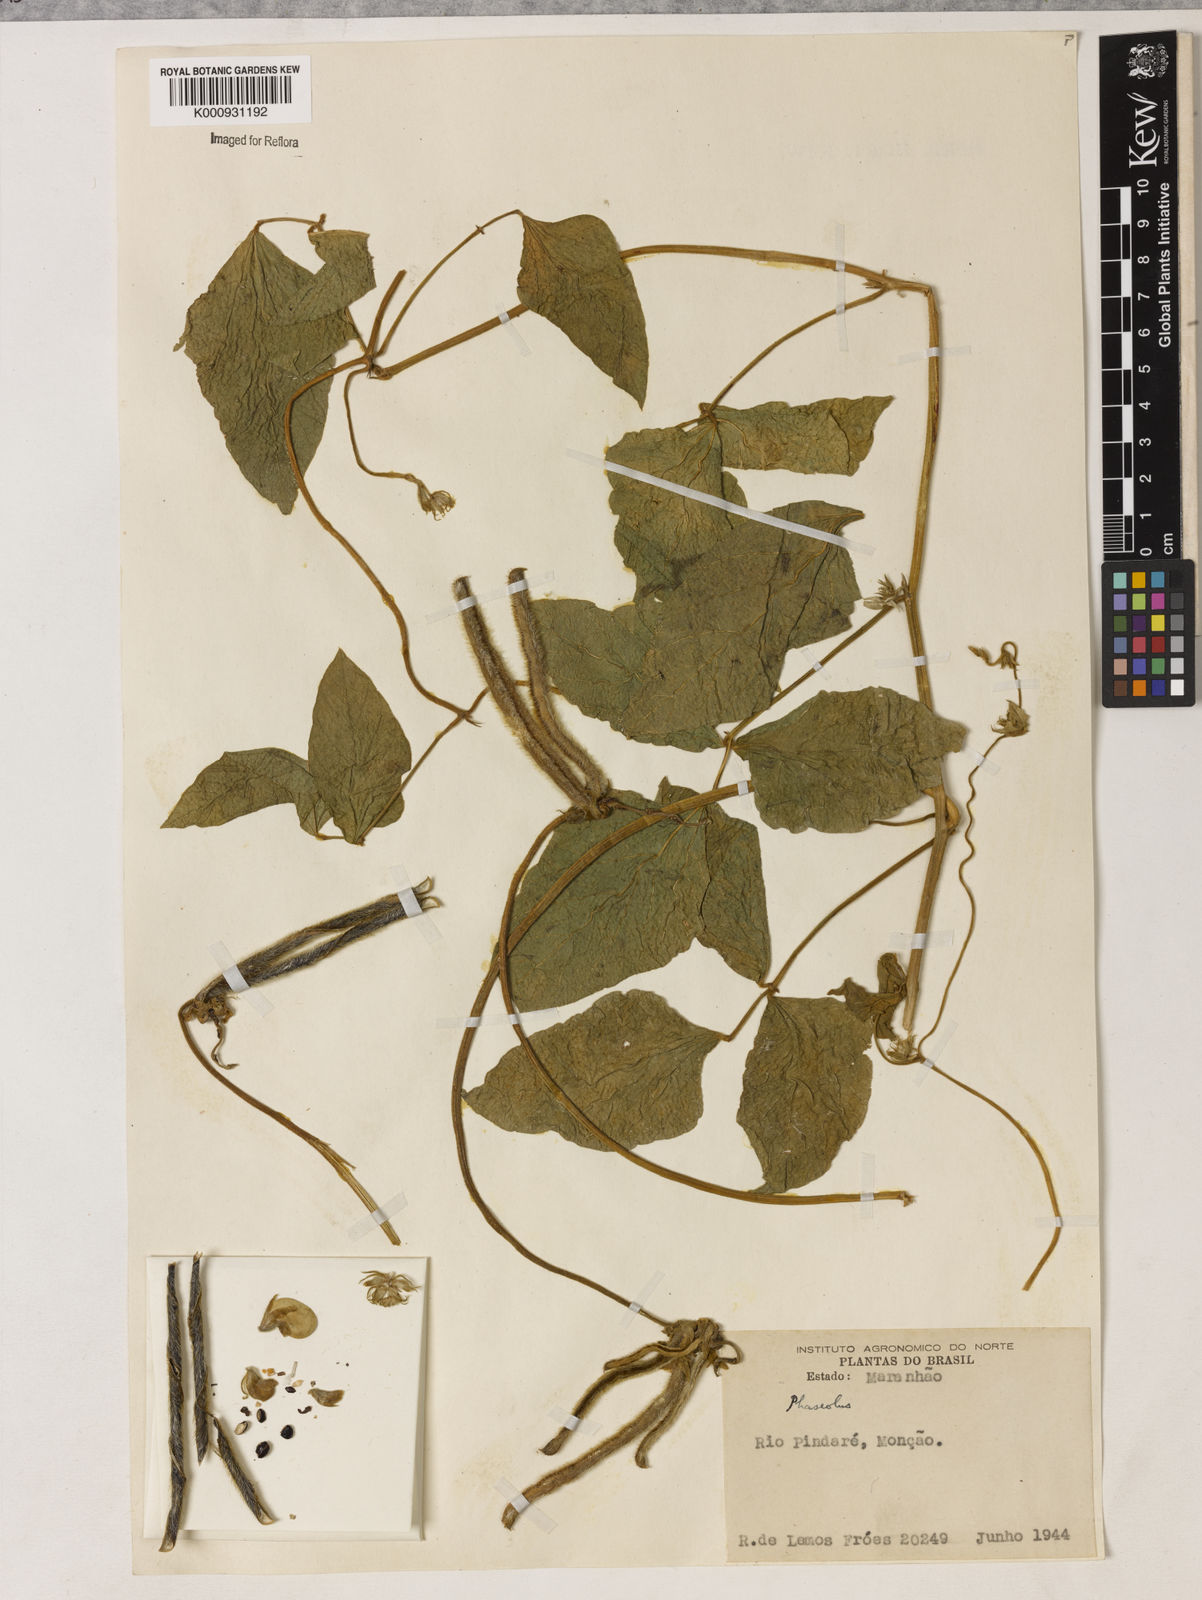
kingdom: Plantae
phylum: Tracheophyta
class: Magnoliopsida
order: Fabales
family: Fabaceae
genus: Vigna
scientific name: Vigna lasiocarpa
